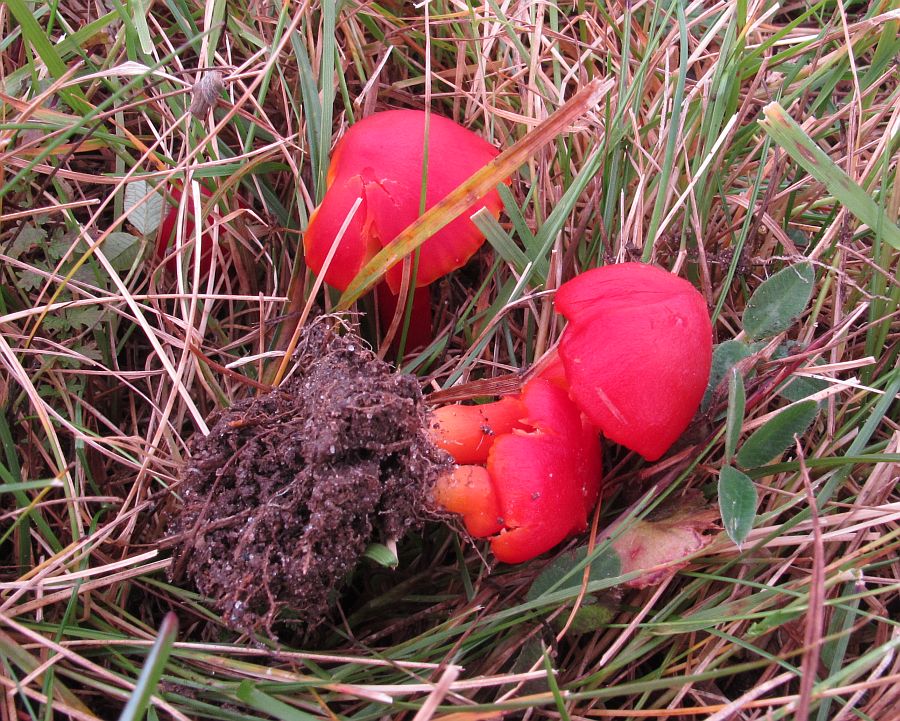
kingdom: Fungi
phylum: Basidiomycota
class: Agaricomycetes
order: Agaricales
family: Hygrophoraceae
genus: Hygrocybe
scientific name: Hygrocybe splendidissima
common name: knaldrød vokshat
